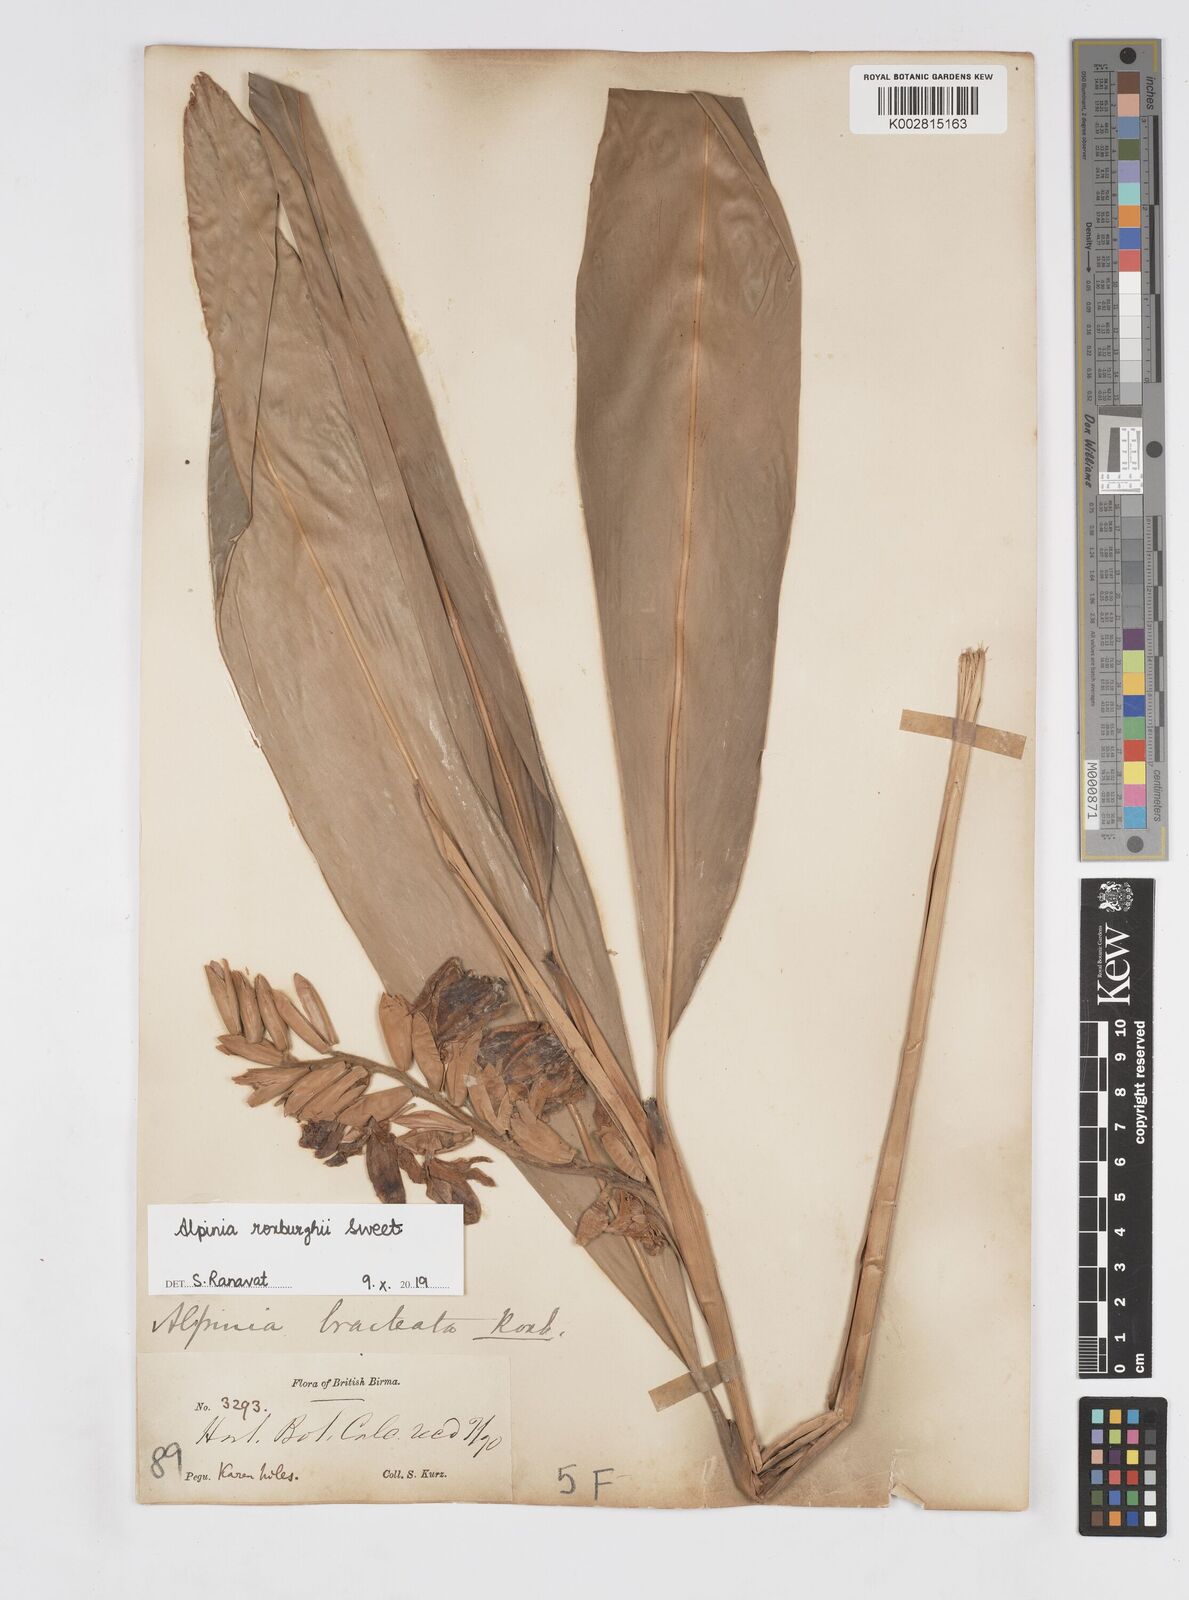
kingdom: Plantae
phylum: Tracheophyta
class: Liliopsida
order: Zingiberales
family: Zingiberaceae
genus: Alpinia
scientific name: Alpinia roxburghii
